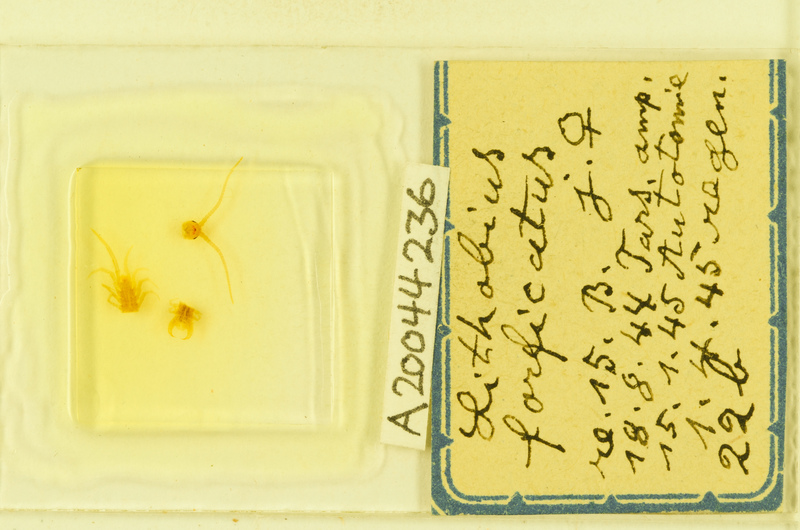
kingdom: Animalia
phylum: Arthropoda
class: Chilopoda
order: Lithobiomorpha
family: Lithobiidae
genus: Lithobius
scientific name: Lithobius forficatus
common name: Centipede
